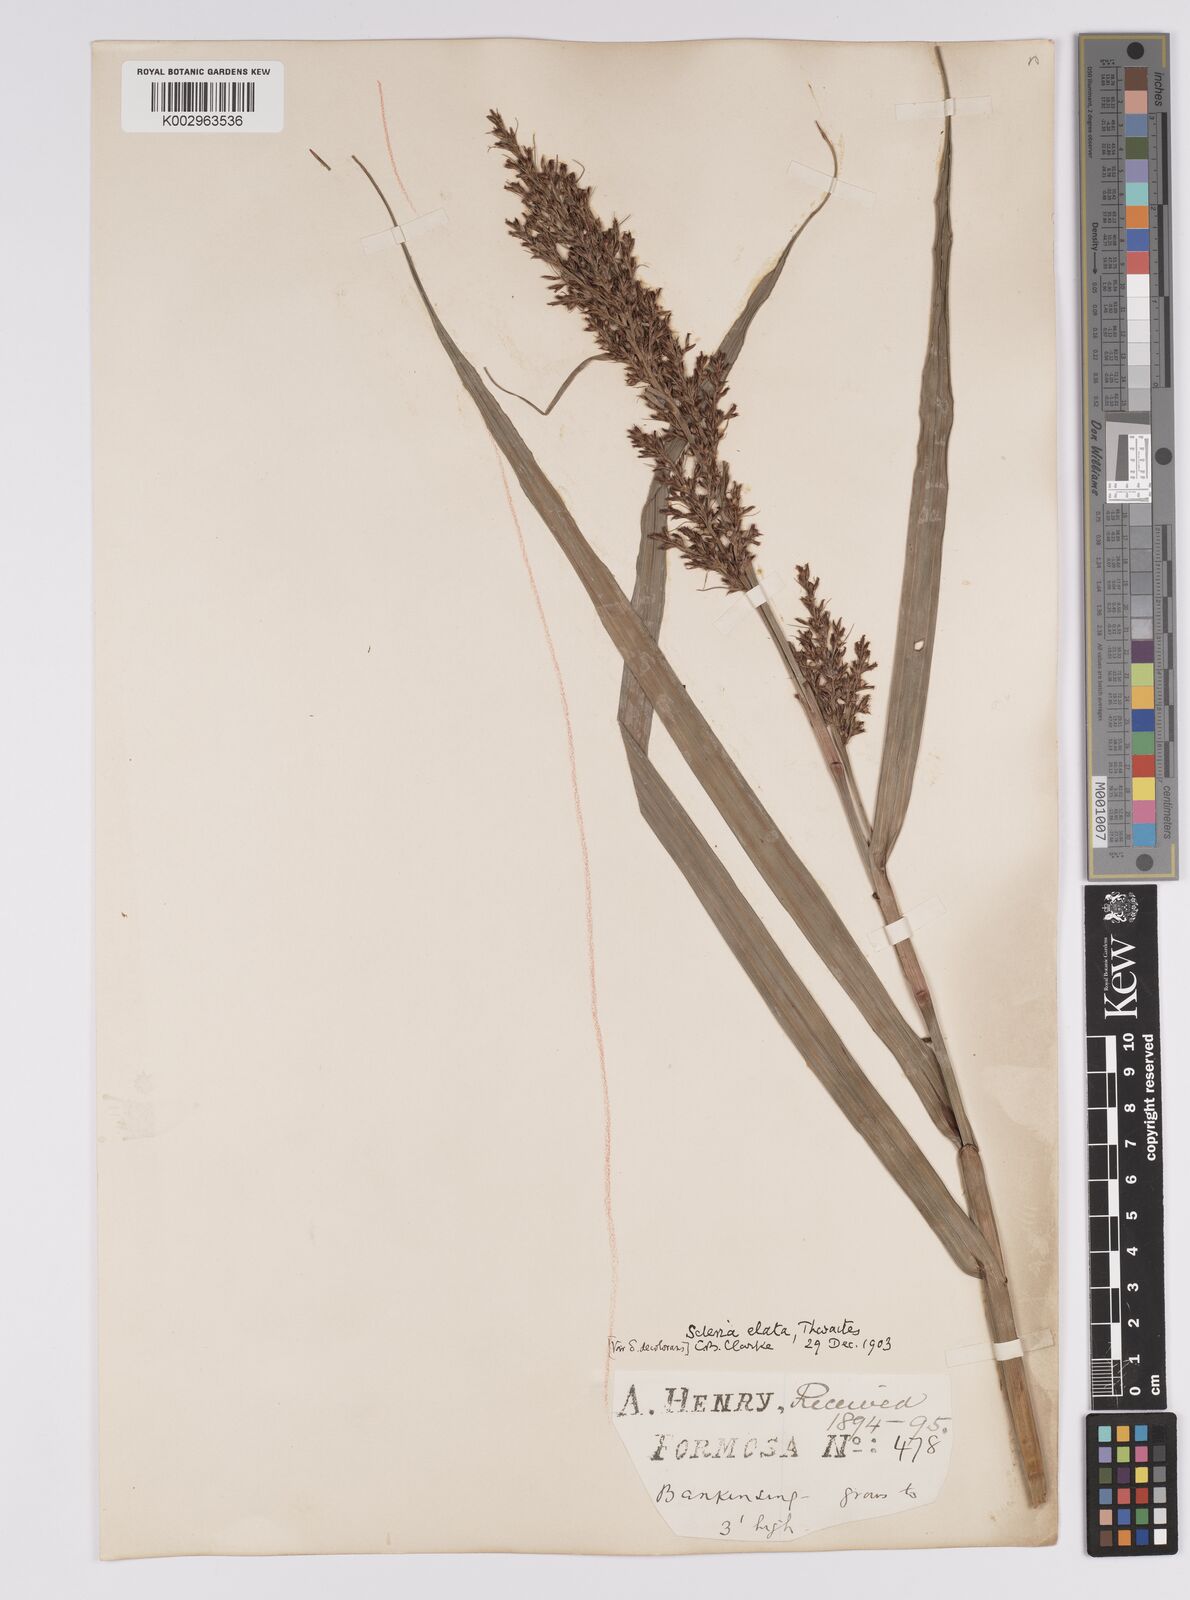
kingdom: Plantae
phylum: Tracheophyta
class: Liliopsida
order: Poales
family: Cyperaceae
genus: Scleria
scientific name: Scleria terrestris
